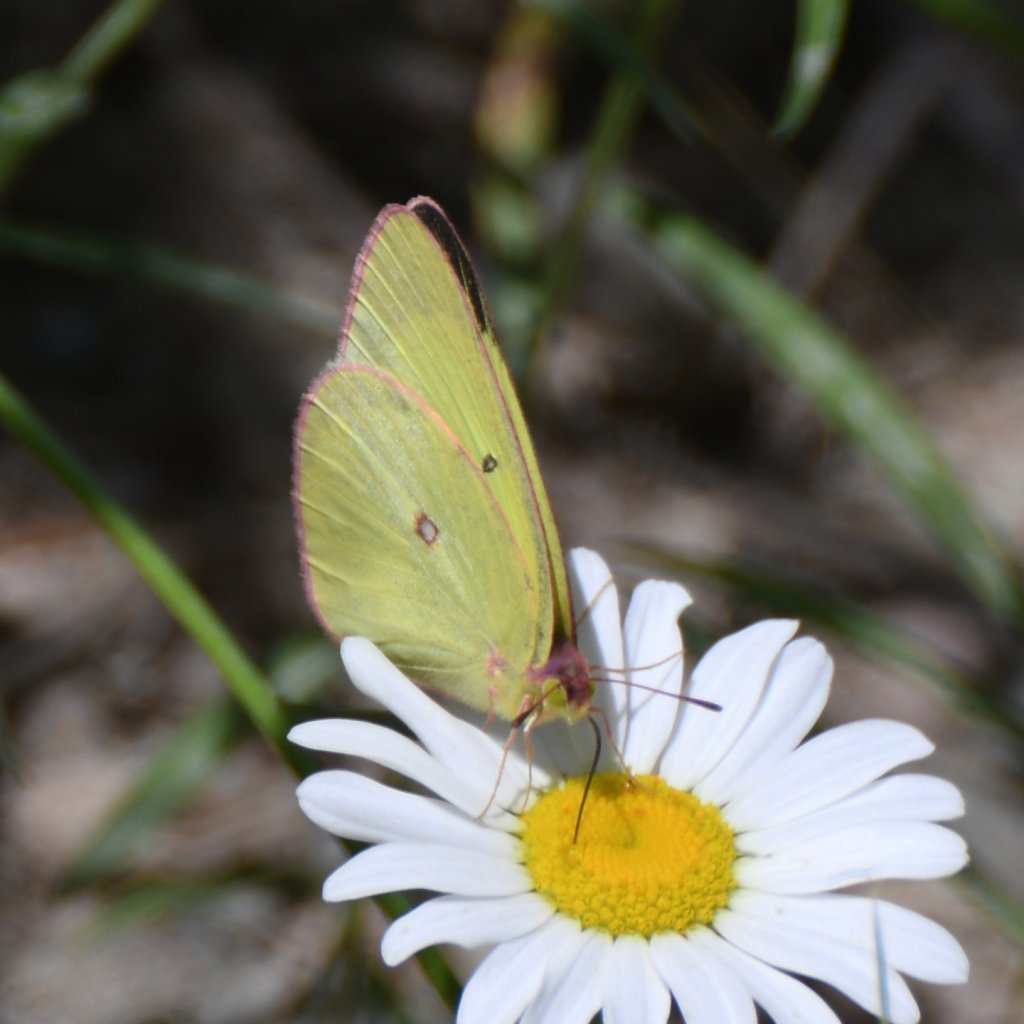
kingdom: Animalia
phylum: Arthropoda
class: Insecta
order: Lepidoptera
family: Pieridae
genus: Colias
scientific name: Colias interior
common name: Pink-edged Sulphur
